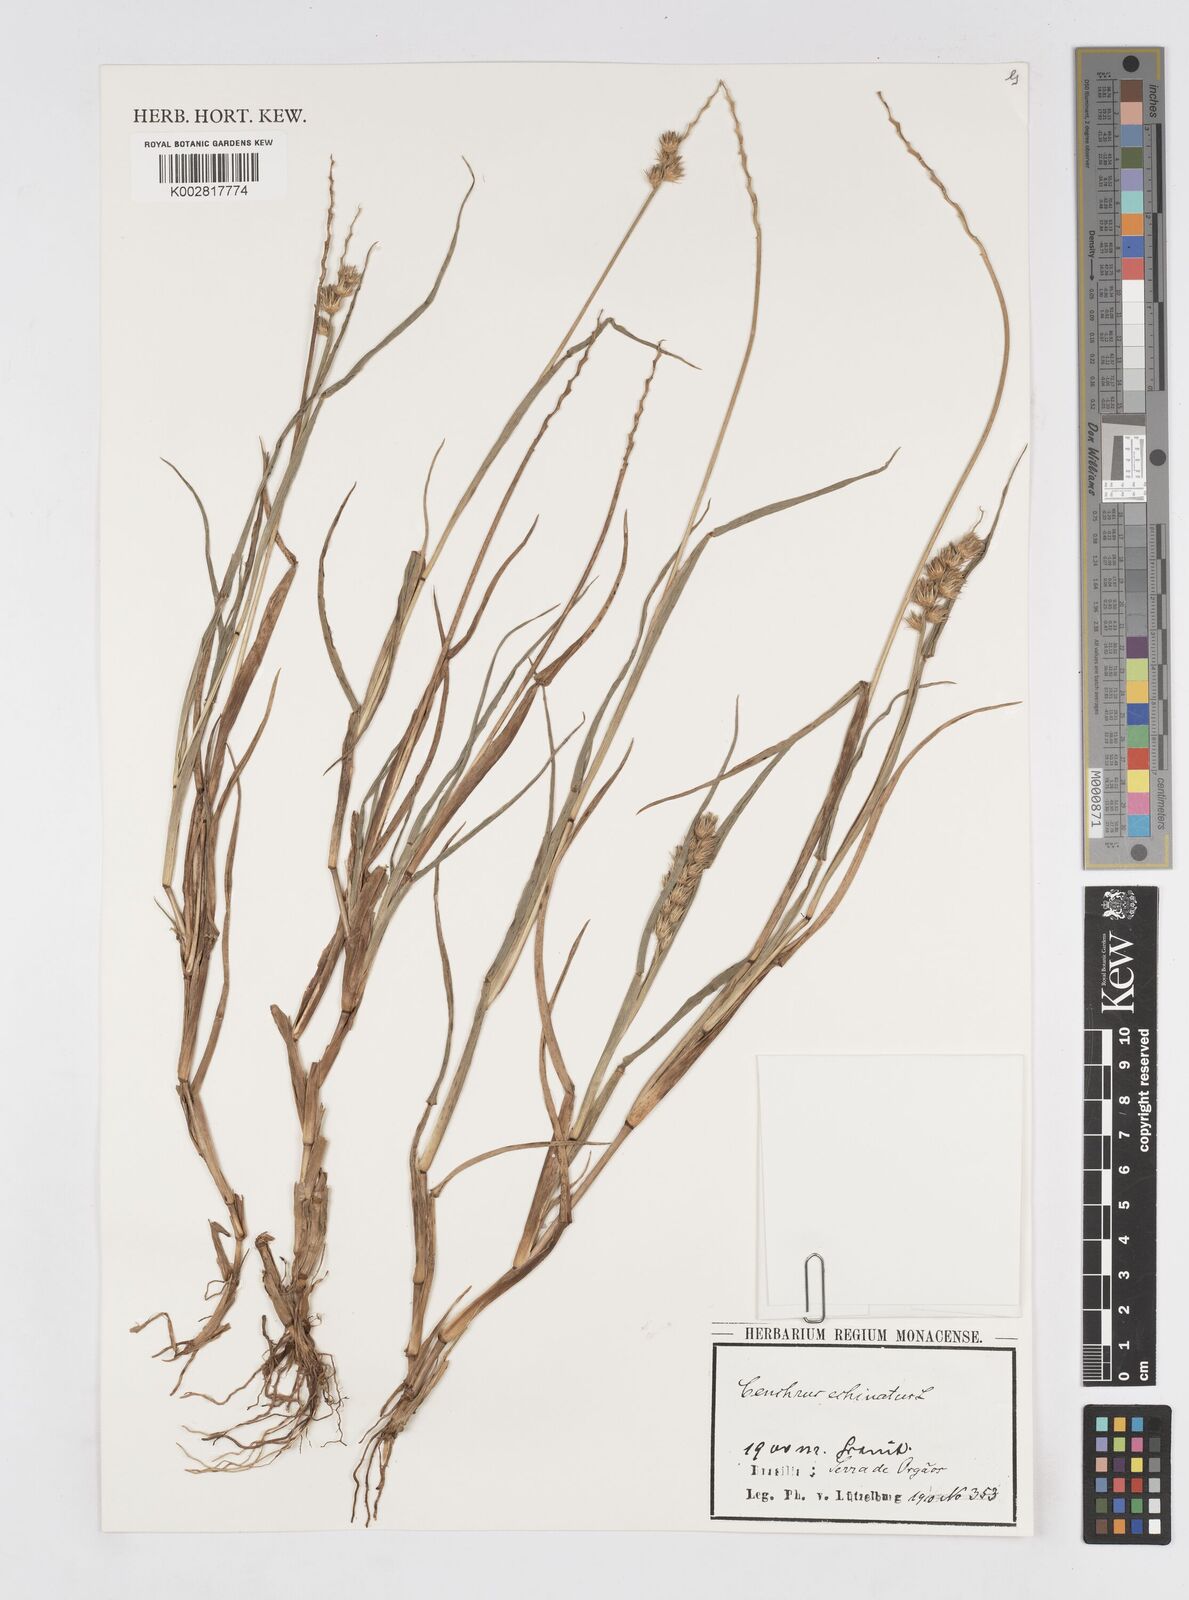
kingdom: Plantae
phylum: Tracheophyta
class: Liliopsida
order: Poales
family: Poaceae
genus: Cenchrus
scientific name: Cenchrus
